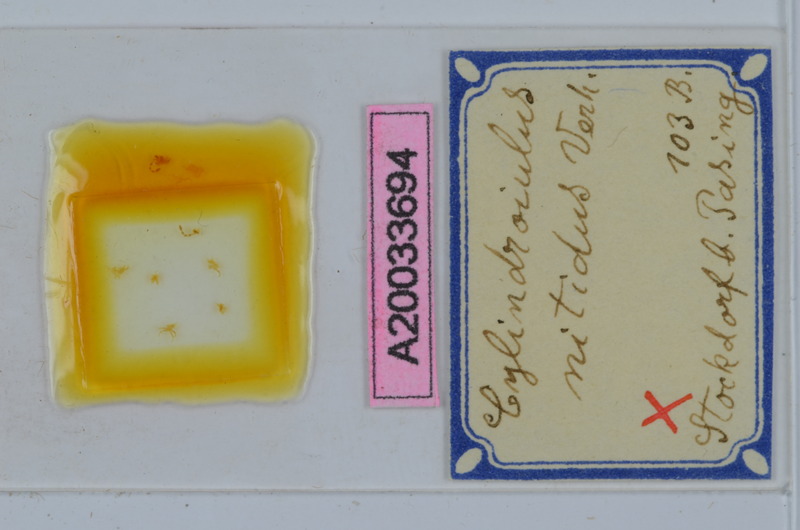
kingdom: Animalia
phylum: Arthropoda
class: Diplopoda
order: Julida
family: Julidae
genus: Allajulus
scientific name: Allajulus nitidus
